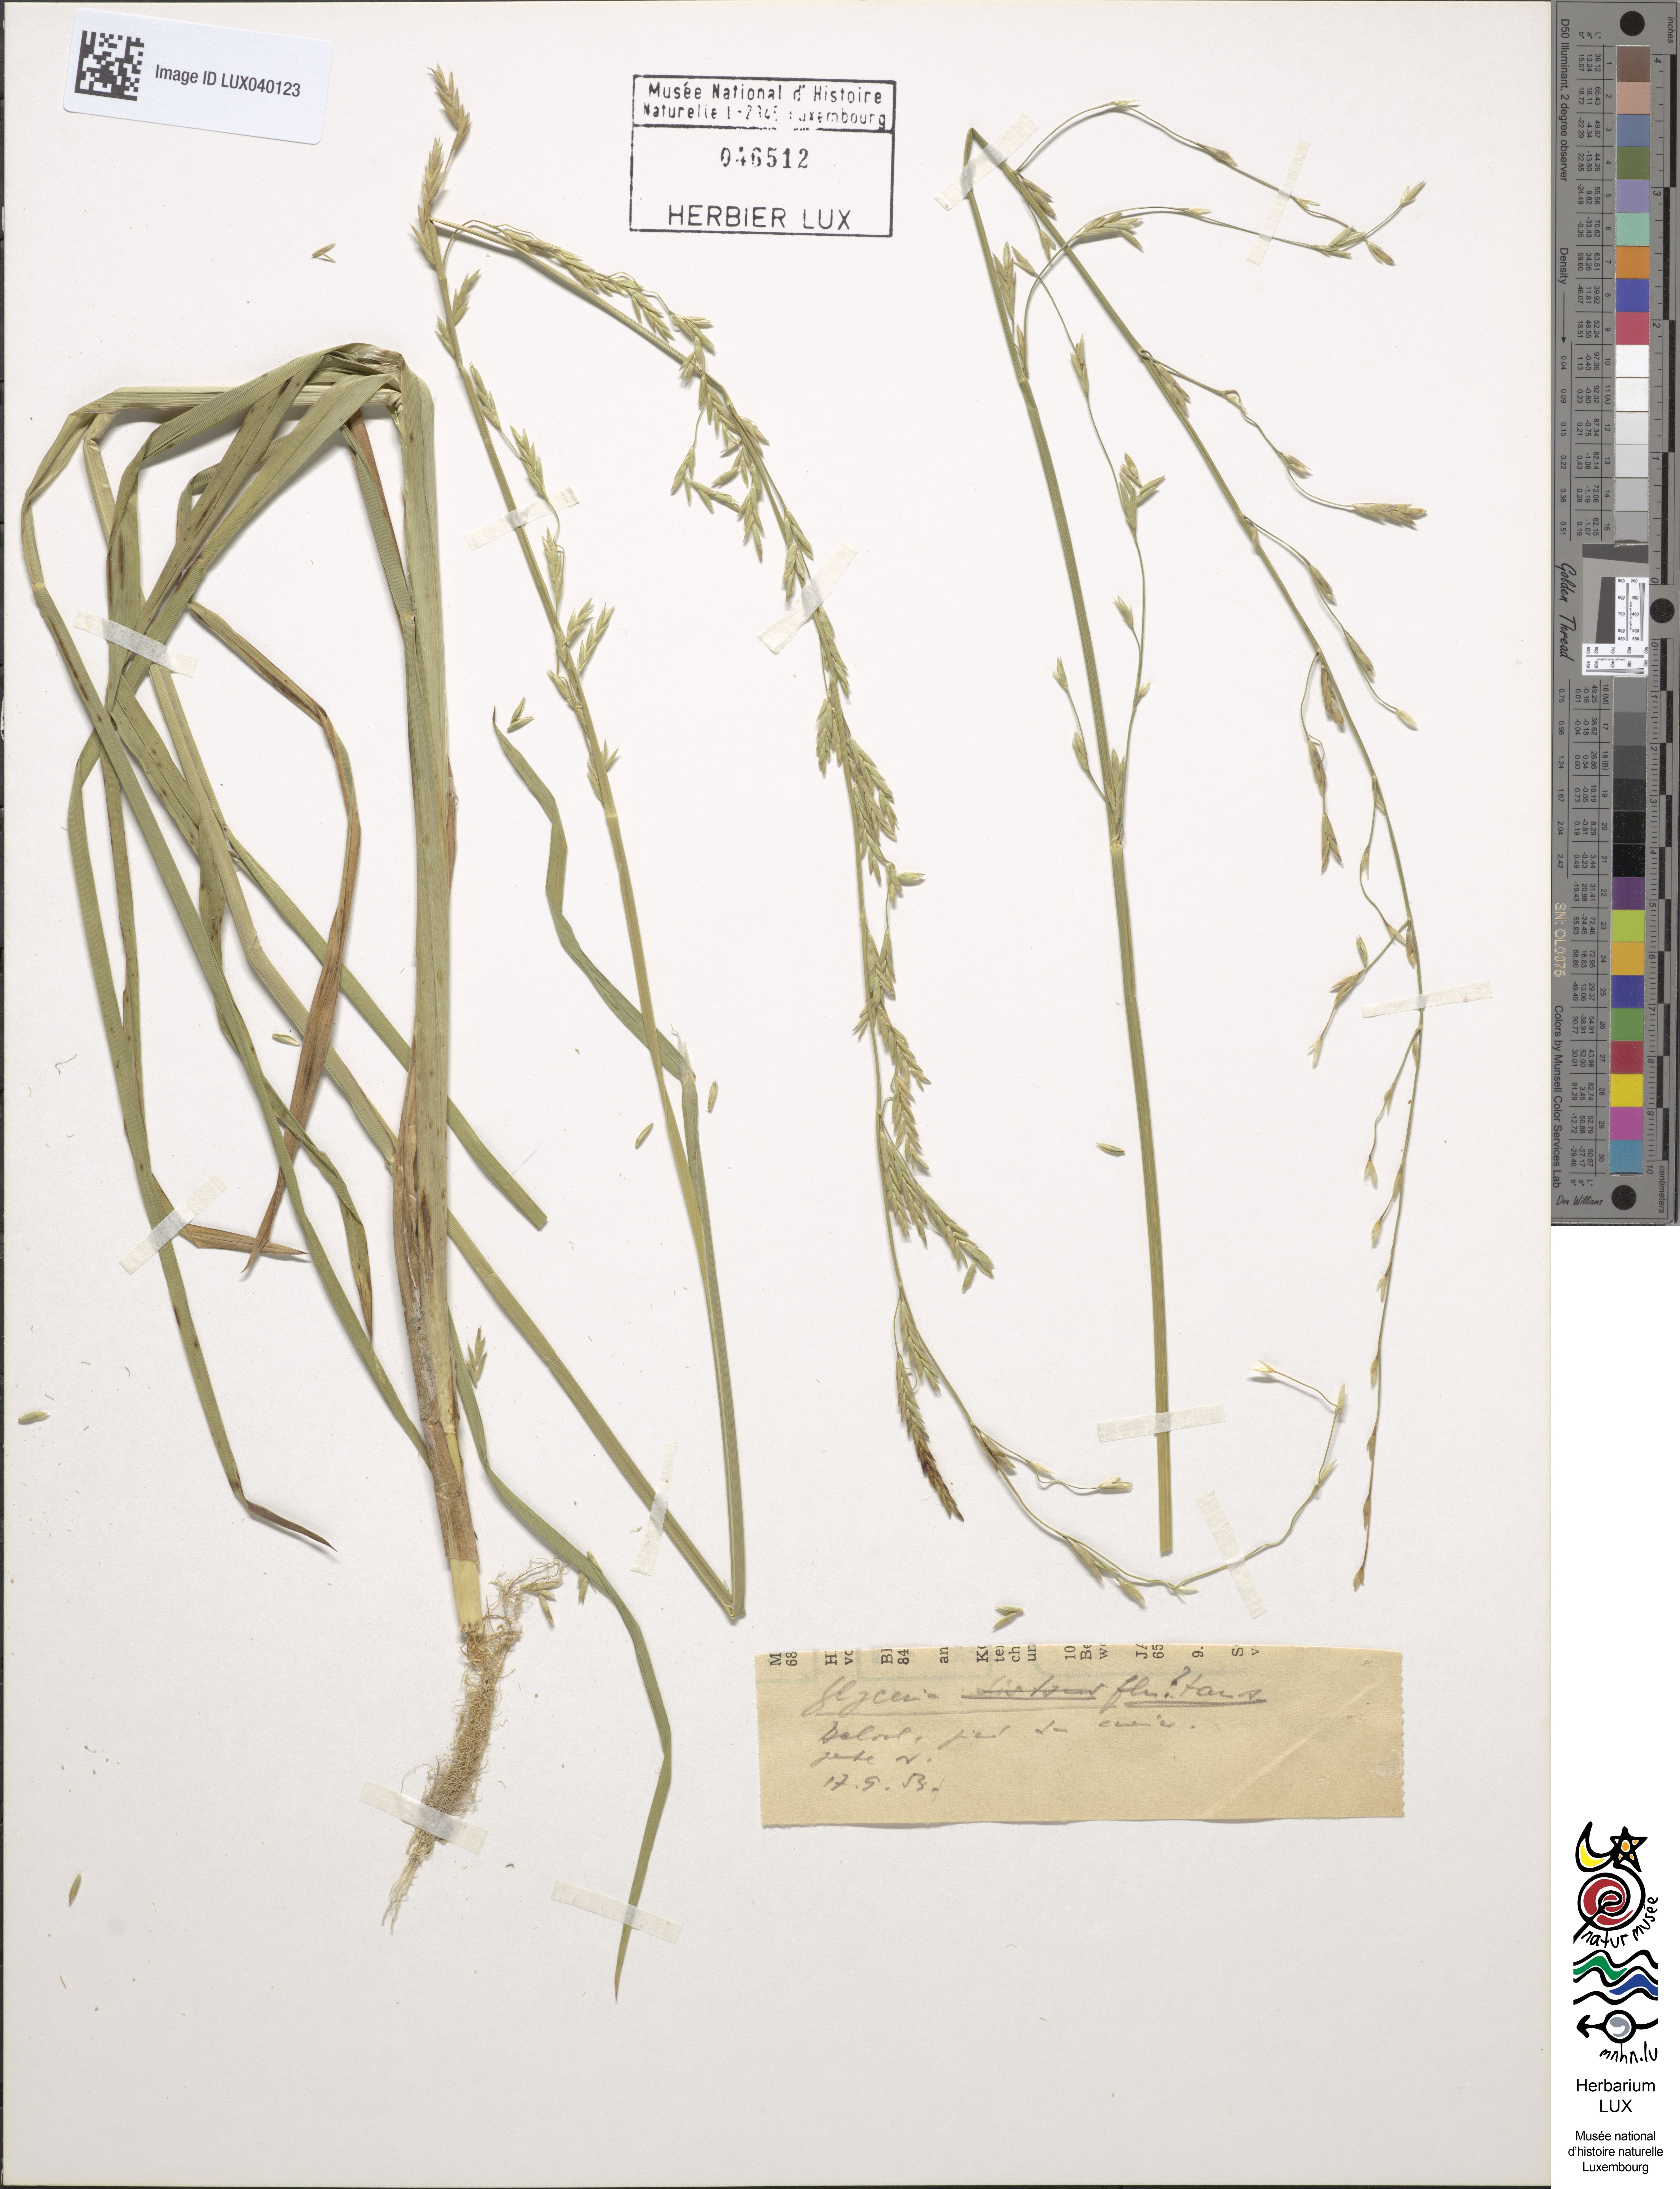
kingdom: Plantae
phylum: Tracheophyta
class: Liliopsida
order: Poales
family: Poaceae
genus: Glyceria
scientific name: Glyceria fluitans
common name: Floating sweet-grass
